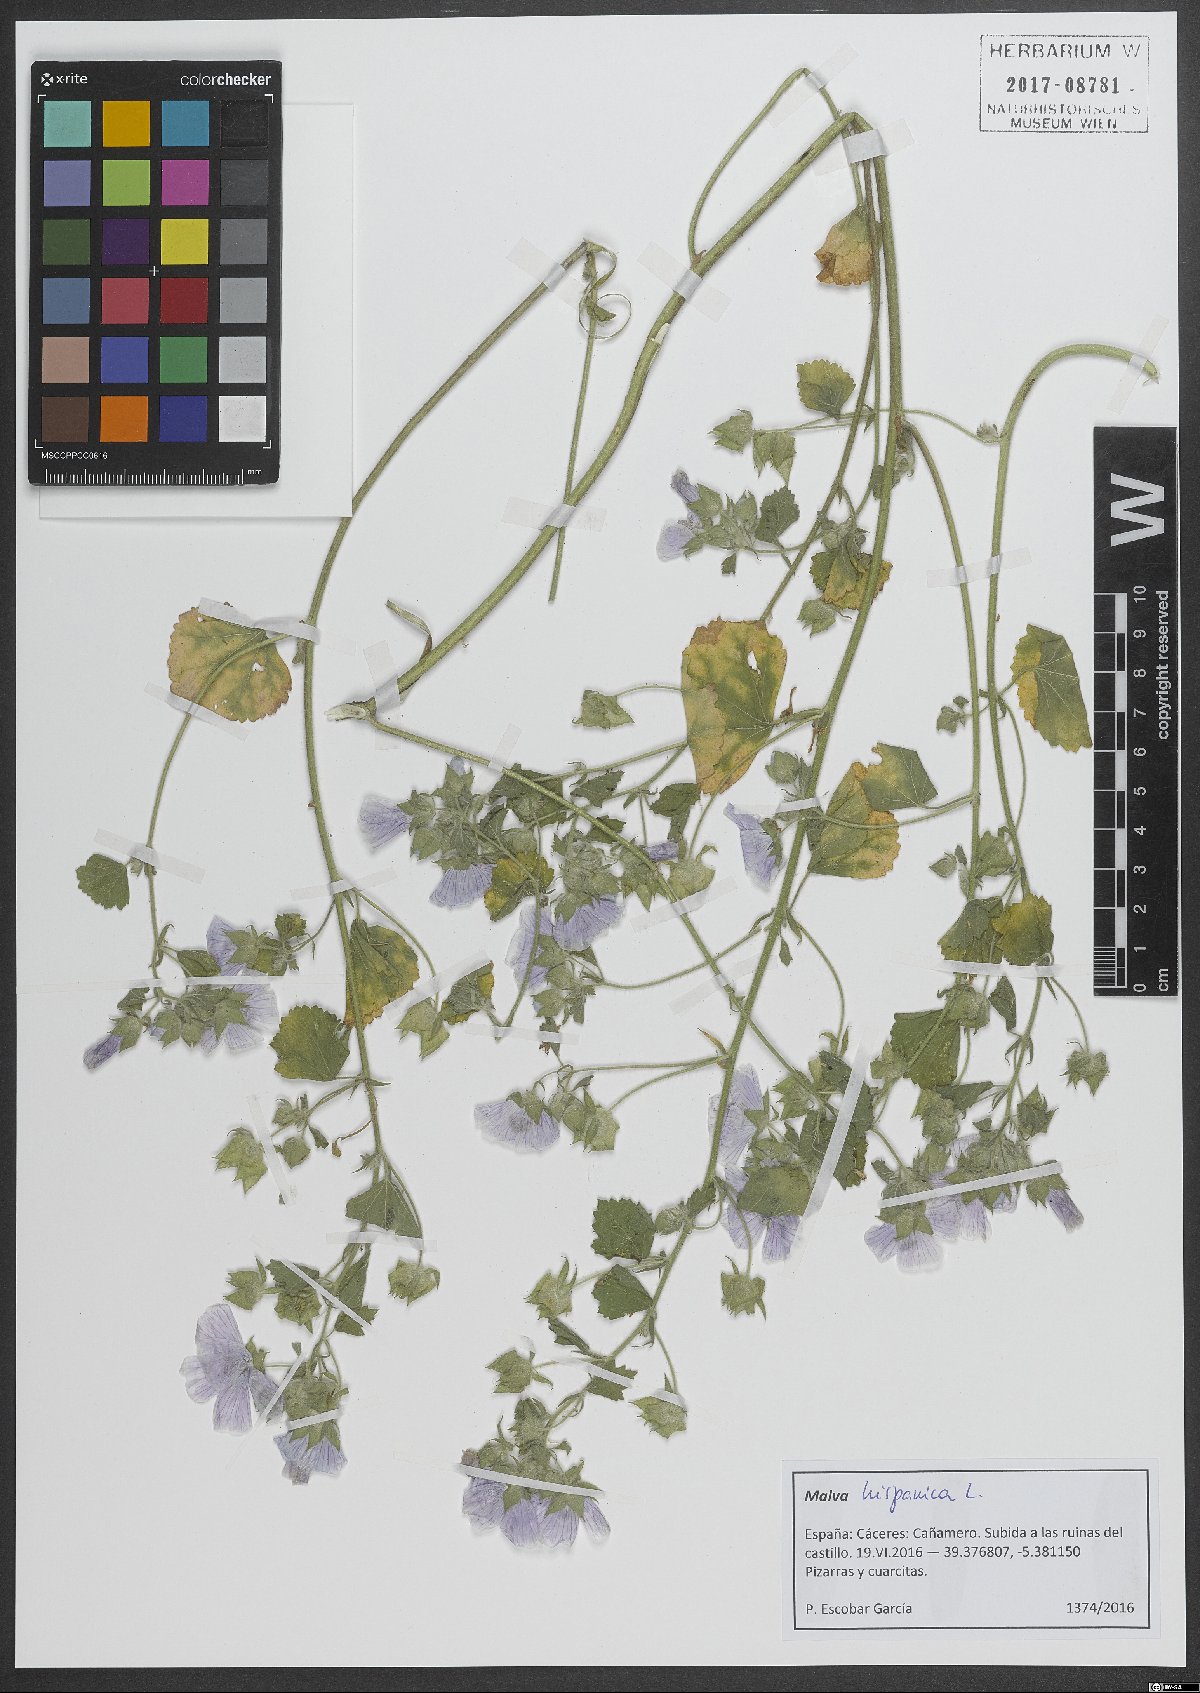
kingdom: Plantae
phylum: Tracheophyta
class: Magnoliopsida
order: Malvales
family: Malvaceae
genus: Malva
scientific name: Malva hispanica
